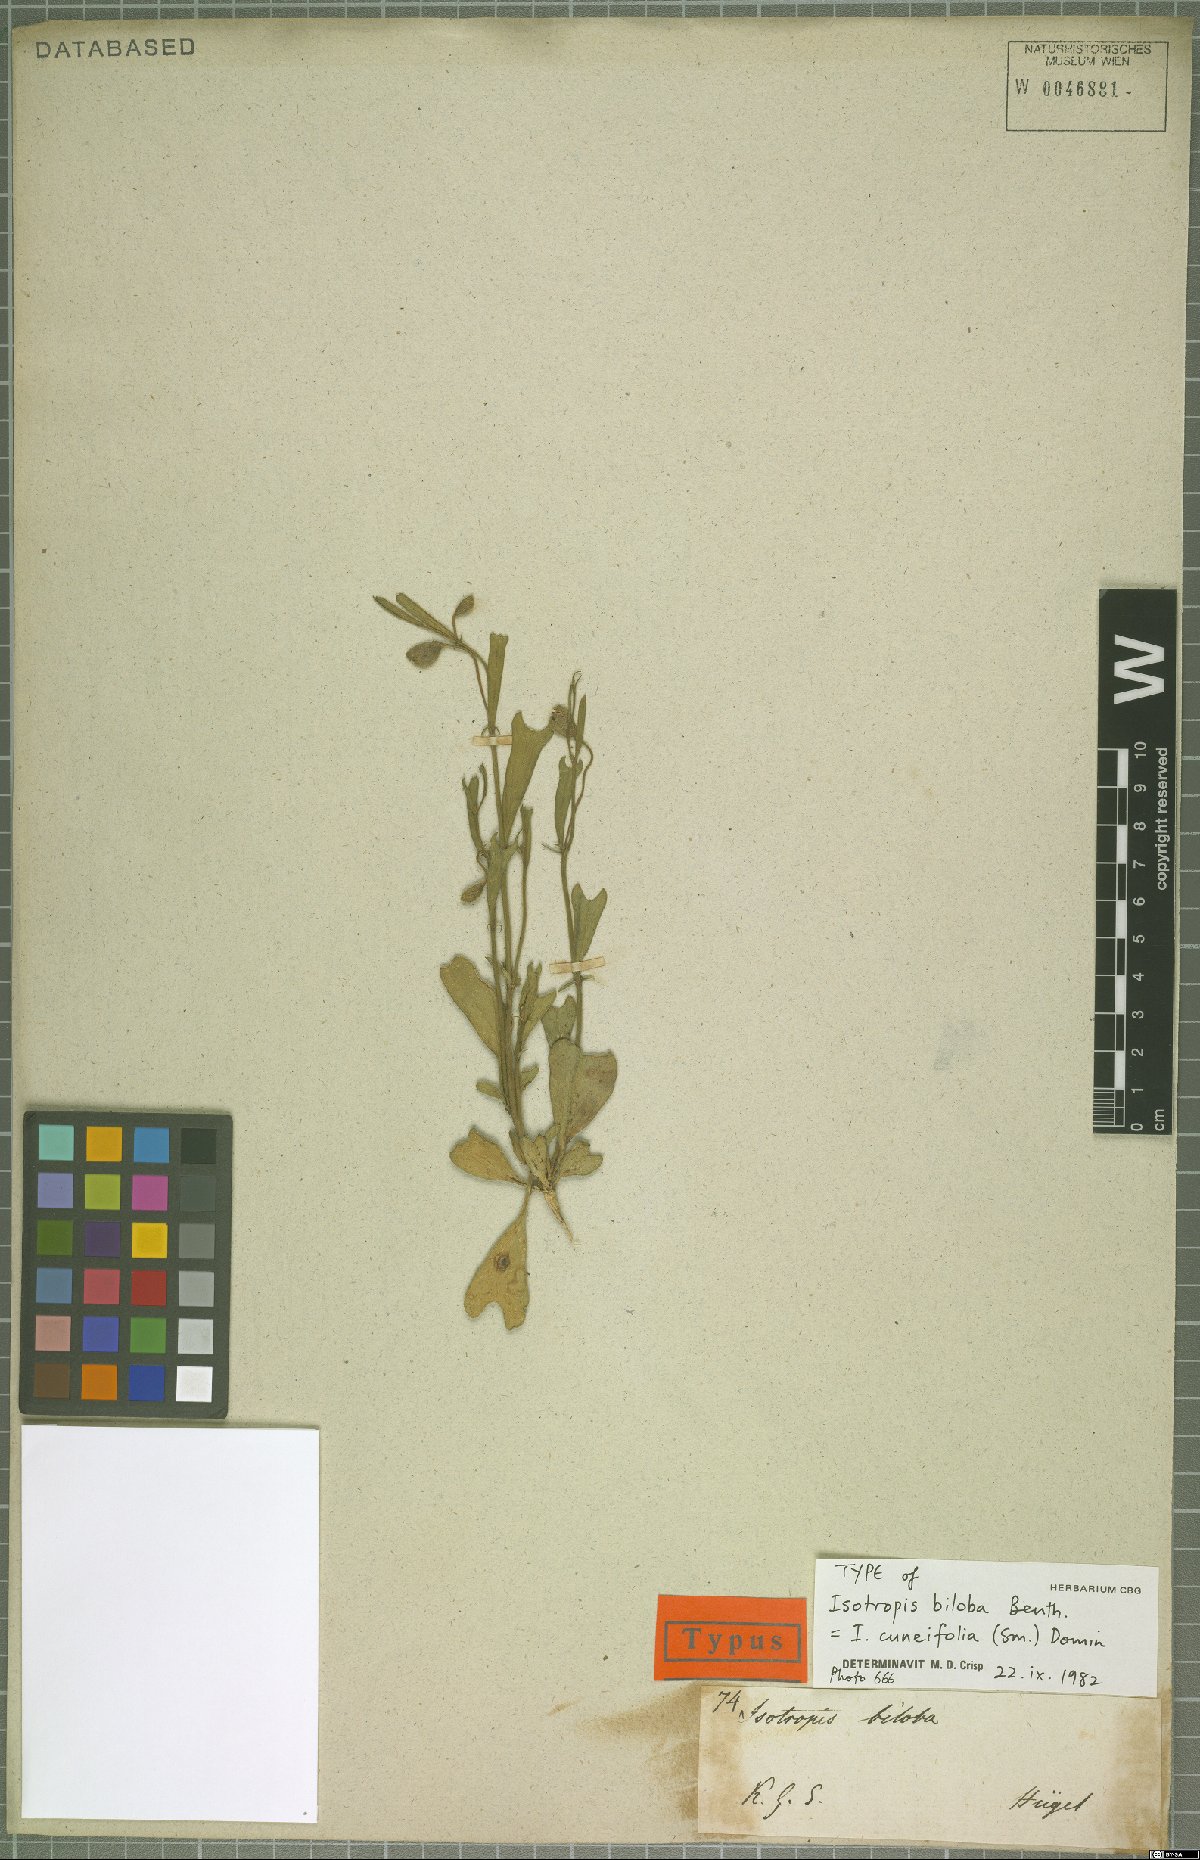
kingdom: Plantae
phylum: Tracheophyta
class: Magnoliopsida
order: Fabales
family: Fabaceae
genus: Isotropis
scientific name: Isotropis cuneifolia
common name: Granny bonnets
